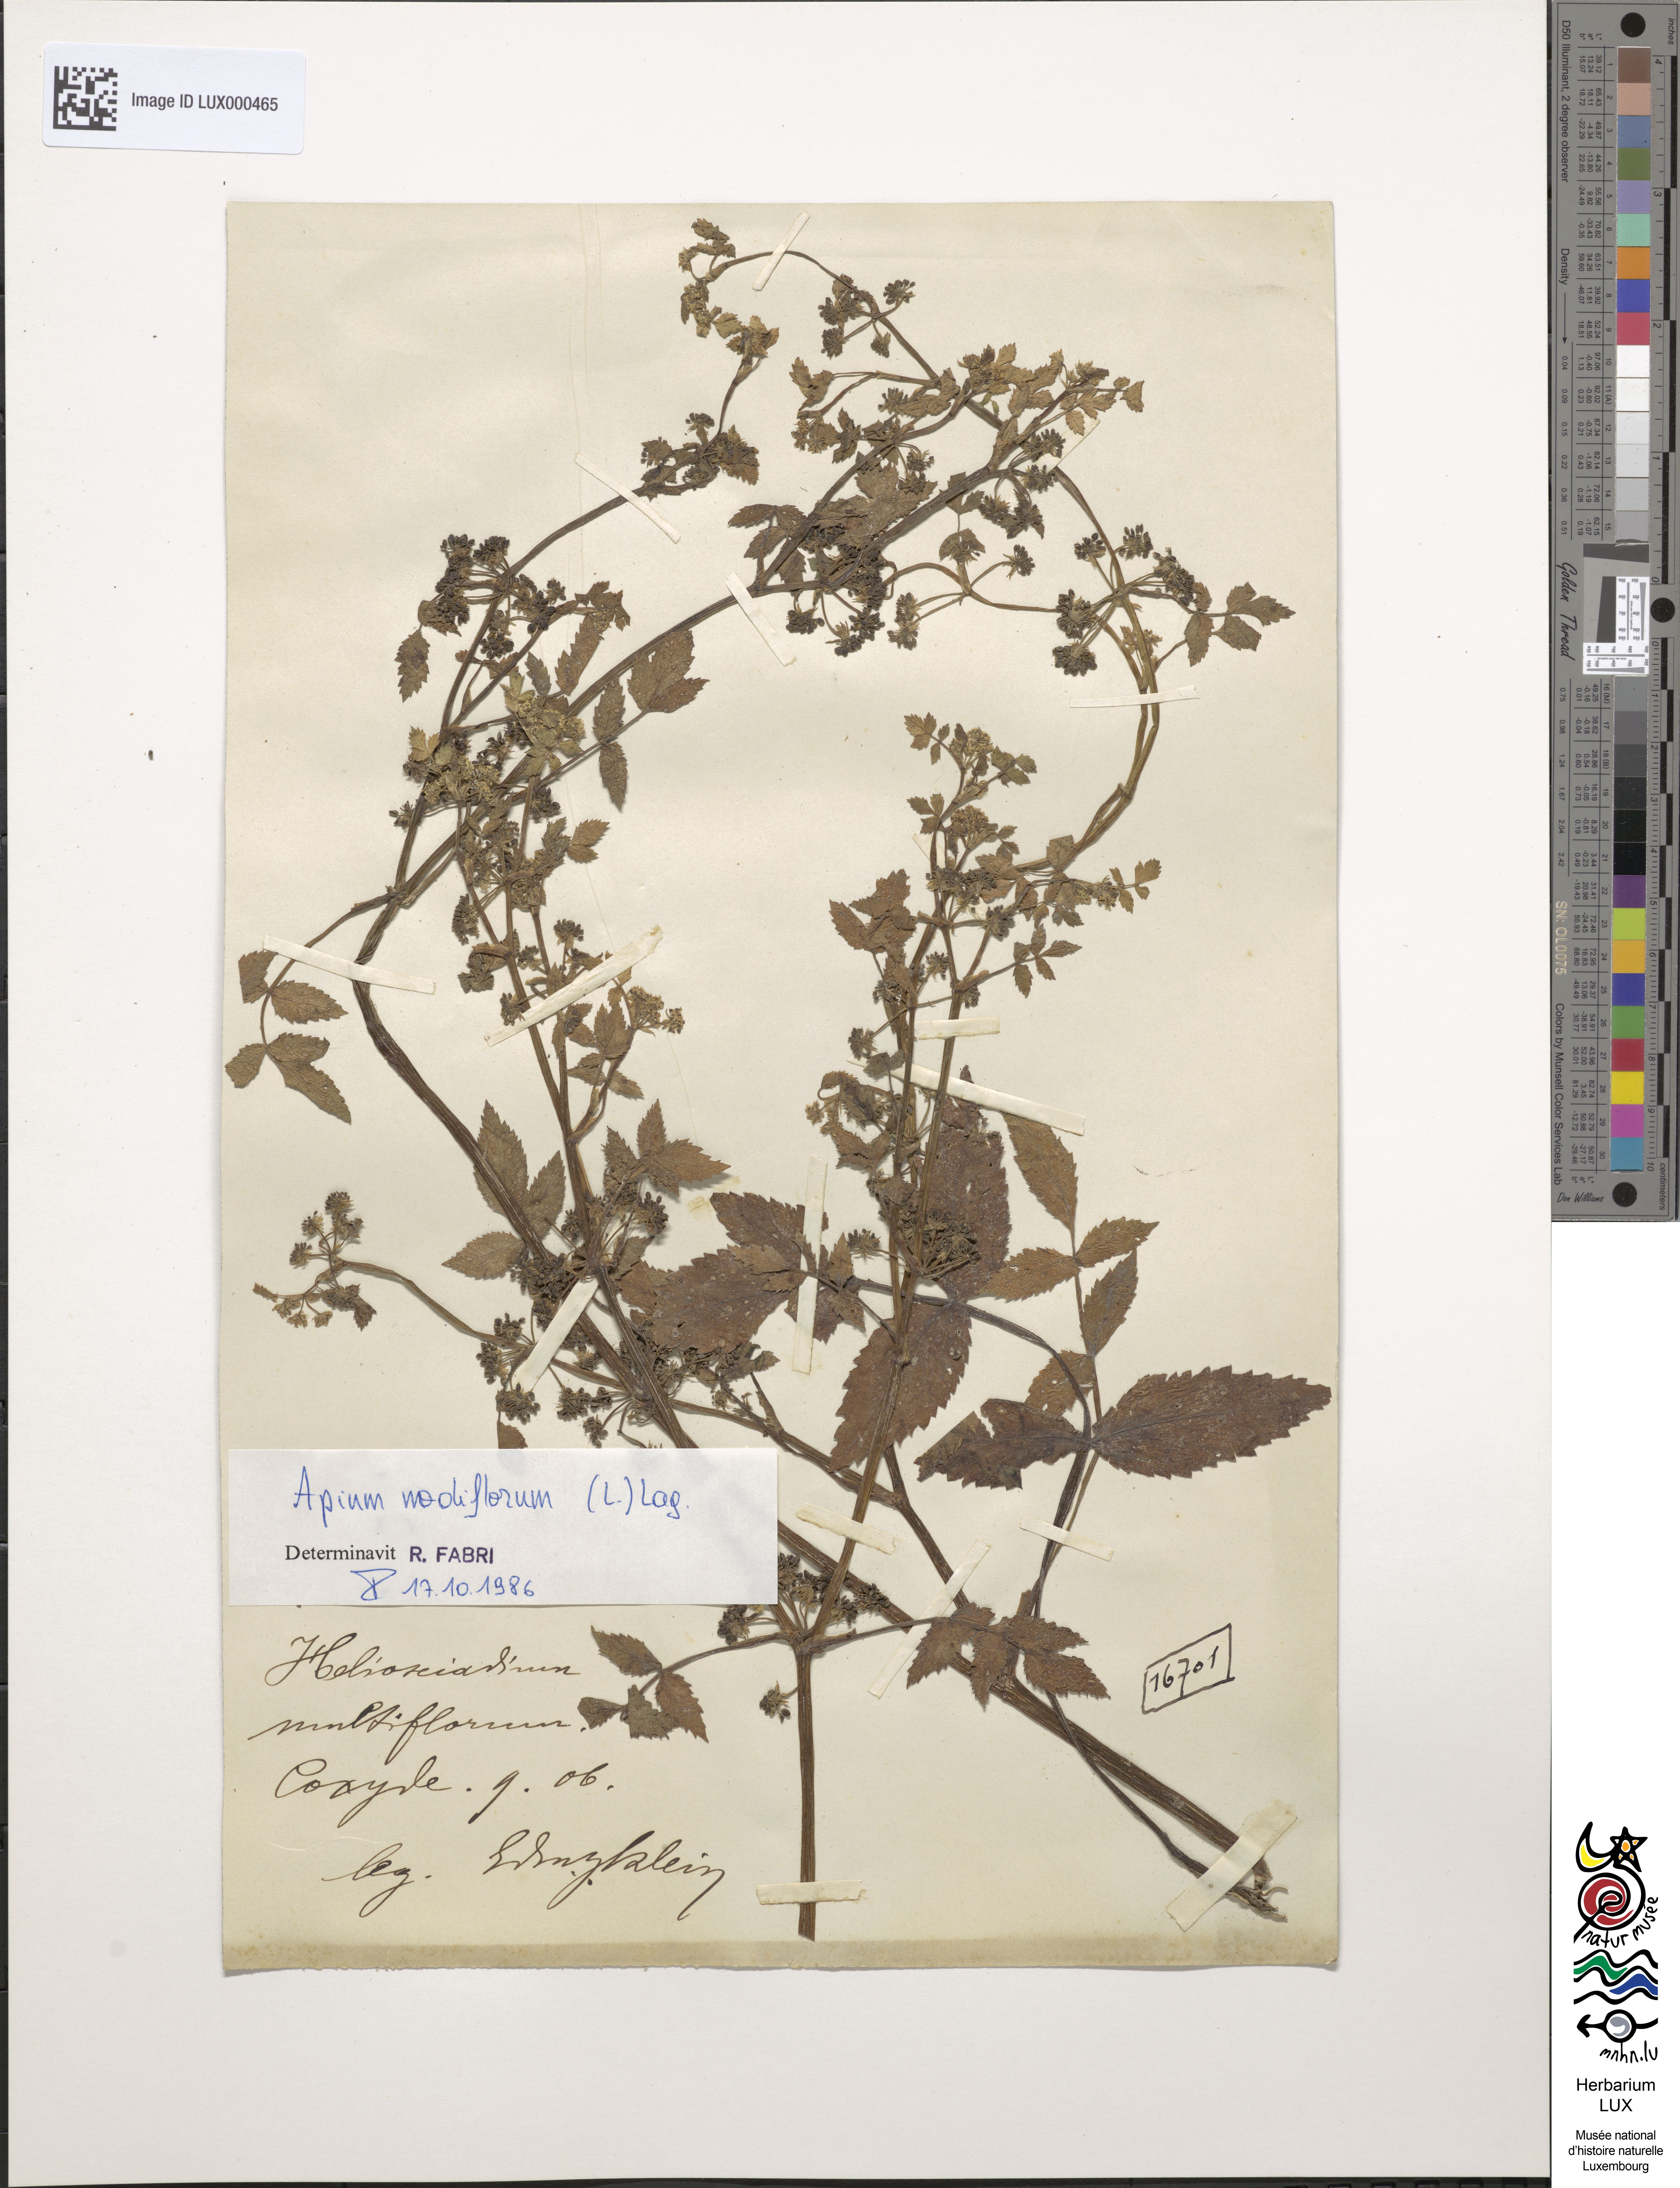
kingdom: Plantae
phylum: Tracheophyta
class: Magnoliopsida
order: Apiales
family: Apiaceae
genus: Heliosciadium
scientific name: Heliosciadium
